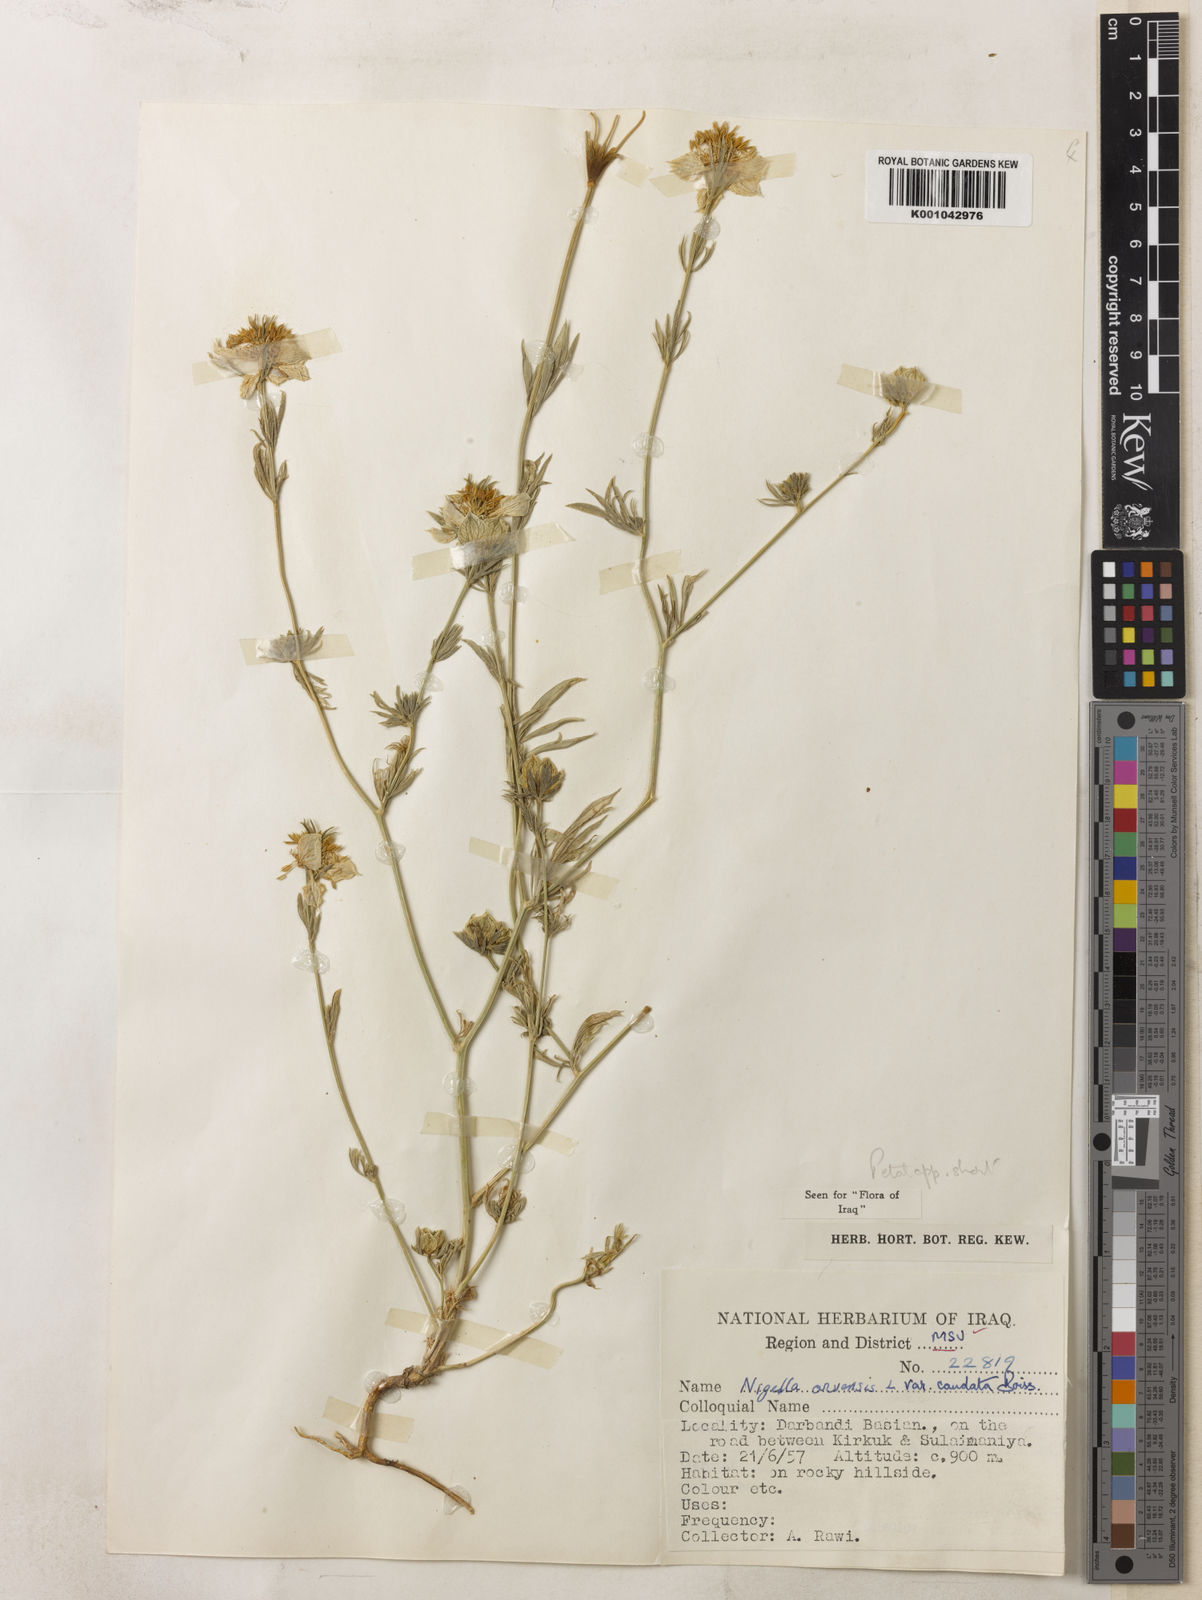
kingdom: Plantae
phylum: Tracheophyta
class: Magnoliopsida
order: Ranunculales
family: Ranunculaceae
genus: Nigella
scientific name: Nigella arvensis
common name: Wild fennel-flower
